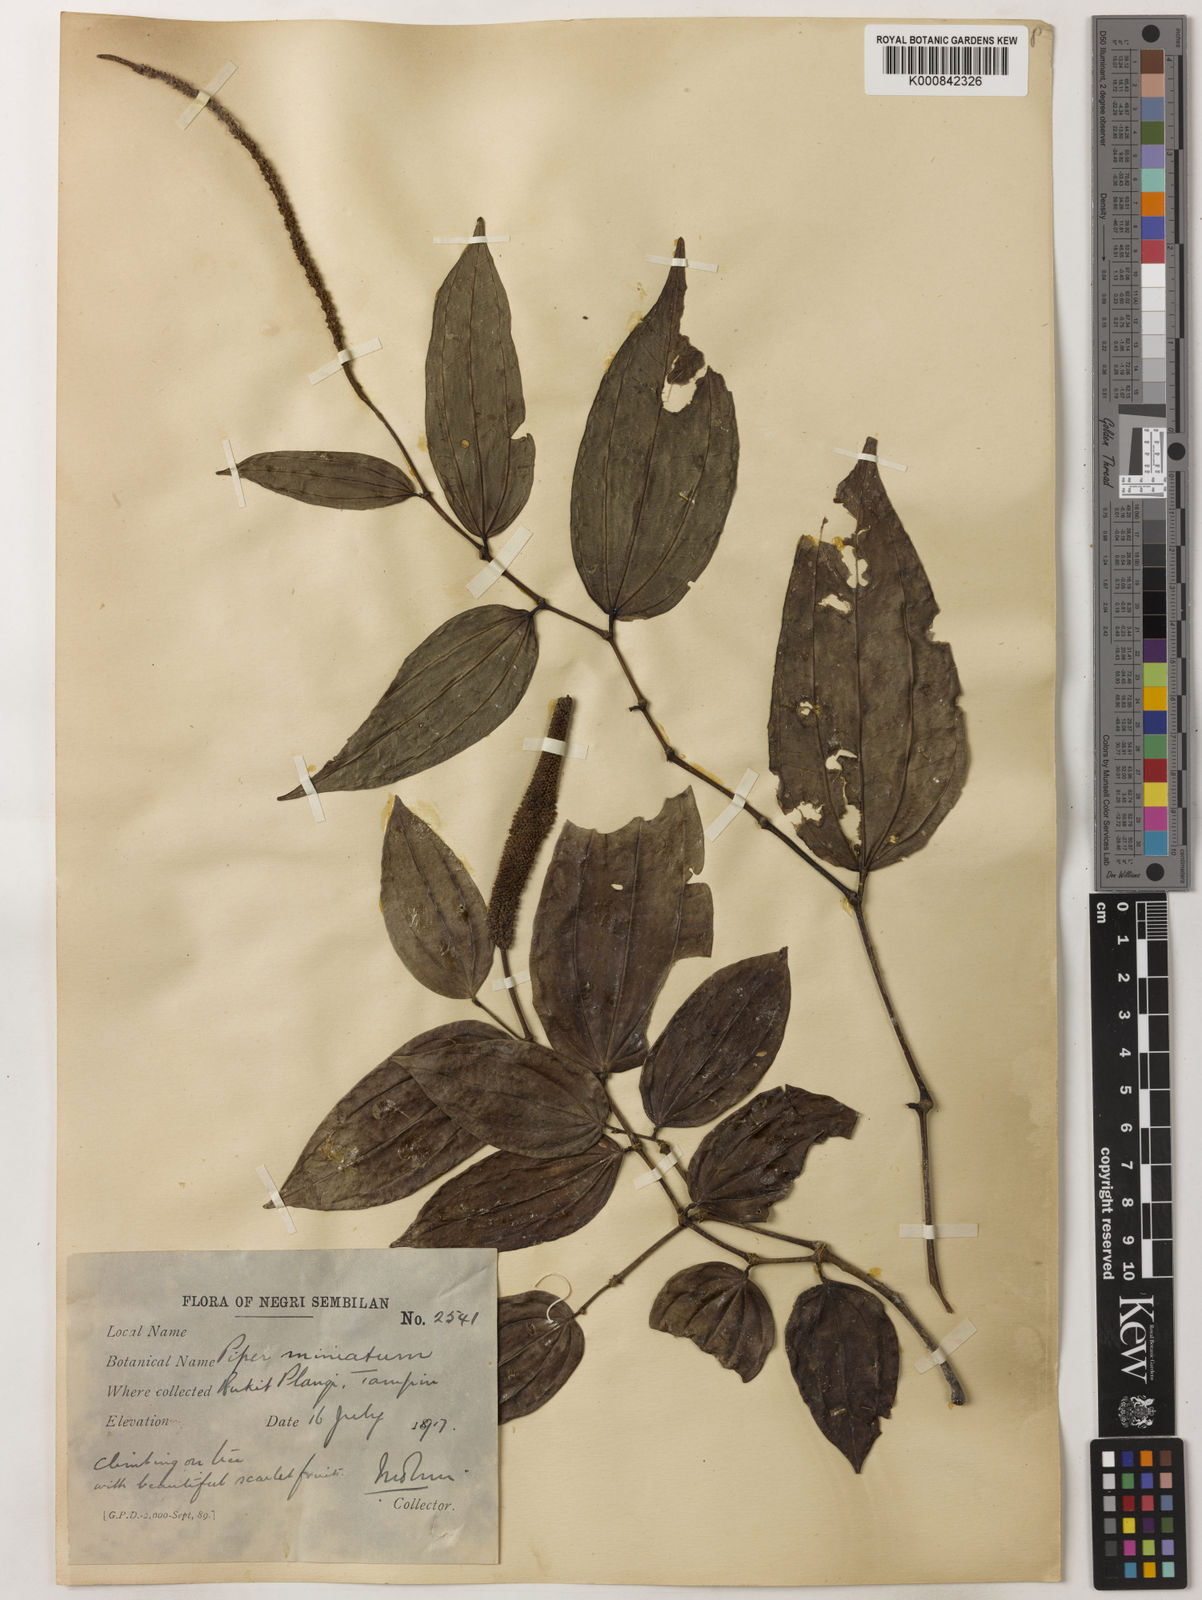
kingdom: Plantae
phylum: Tracheophyta
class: Magnoliopsida
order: Piperales
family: Piperaceae
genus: Piper
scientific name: Piper macropiper
